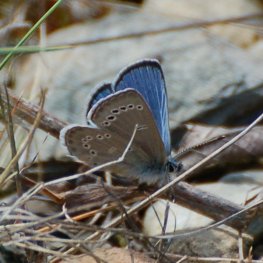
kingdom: Animalia
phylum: Arthropoda
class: Insecta
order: Lepidoptera
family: Lycaenidae
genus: Glaucopsyche
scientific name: Glaucopsyche lygdamus
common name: Silvery Blue
